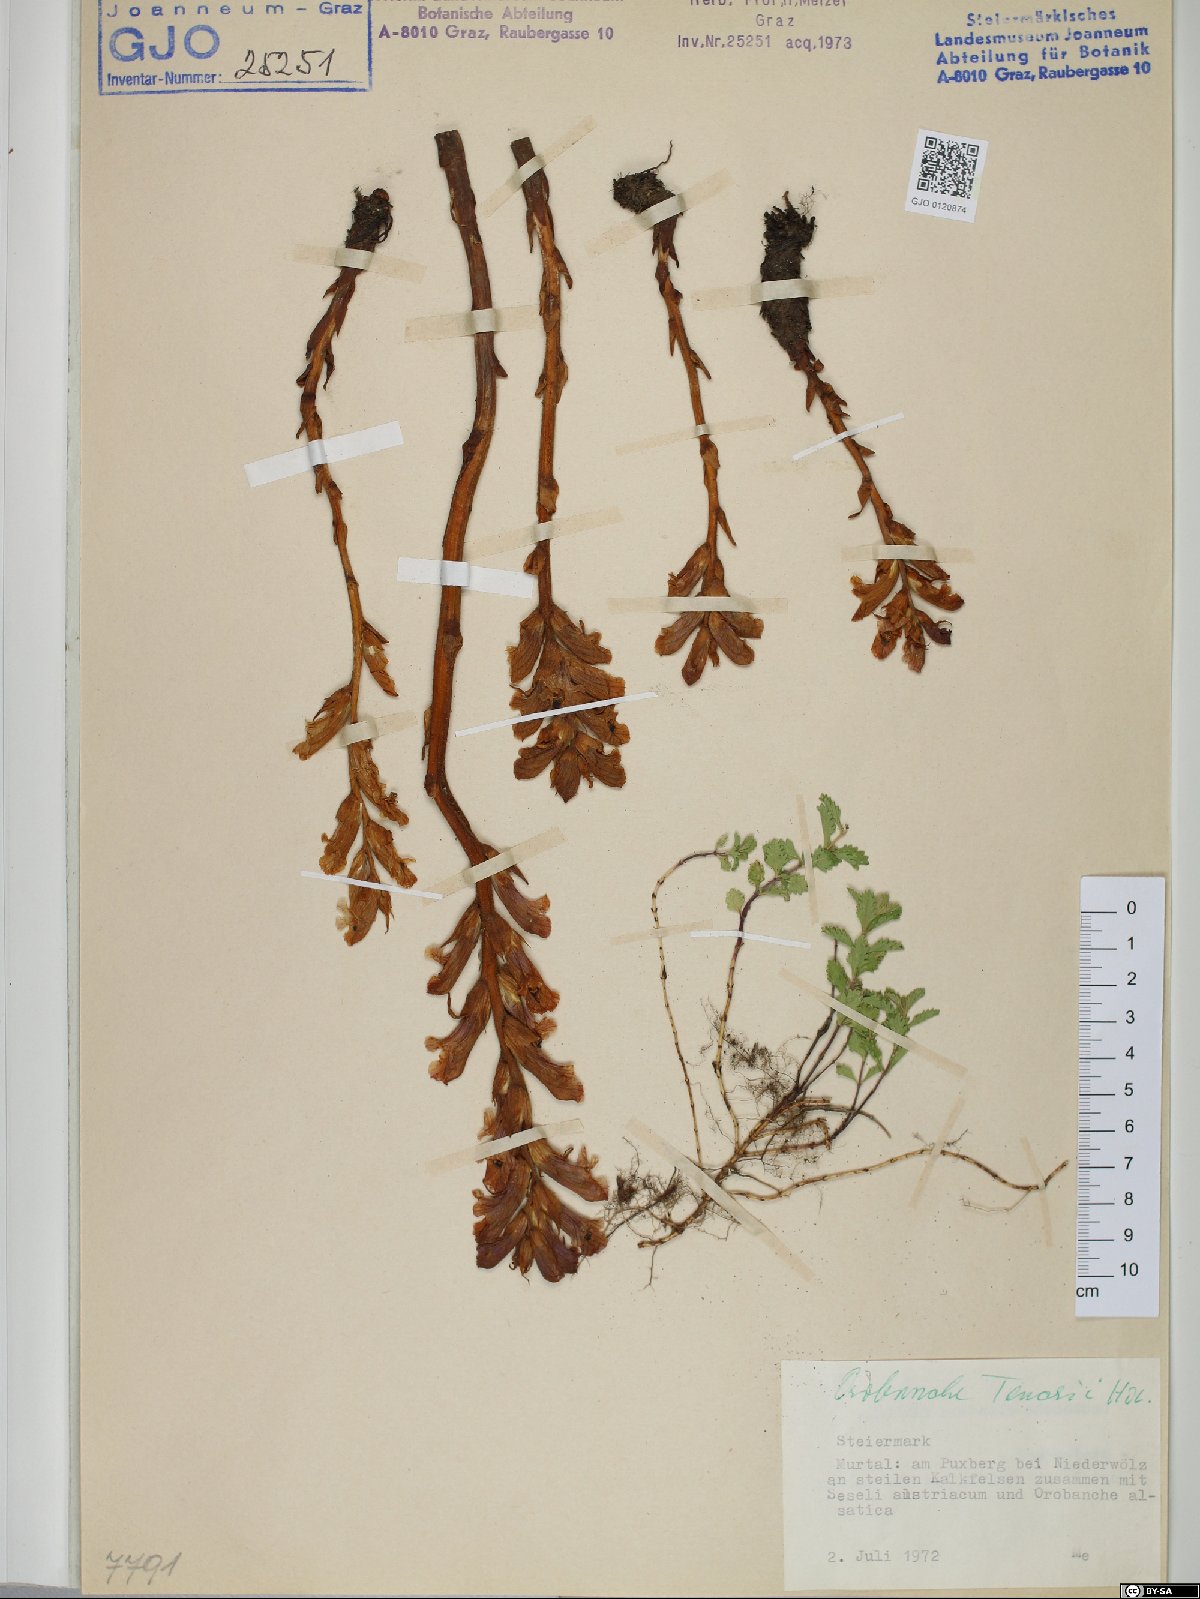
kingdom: Plantae
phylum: Tracheophyta
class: Magnoliopsida
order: Lamiales
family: Orobanchaceae
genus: Orobanche
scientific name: Orobanche teucrii
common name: Germander broomrape
